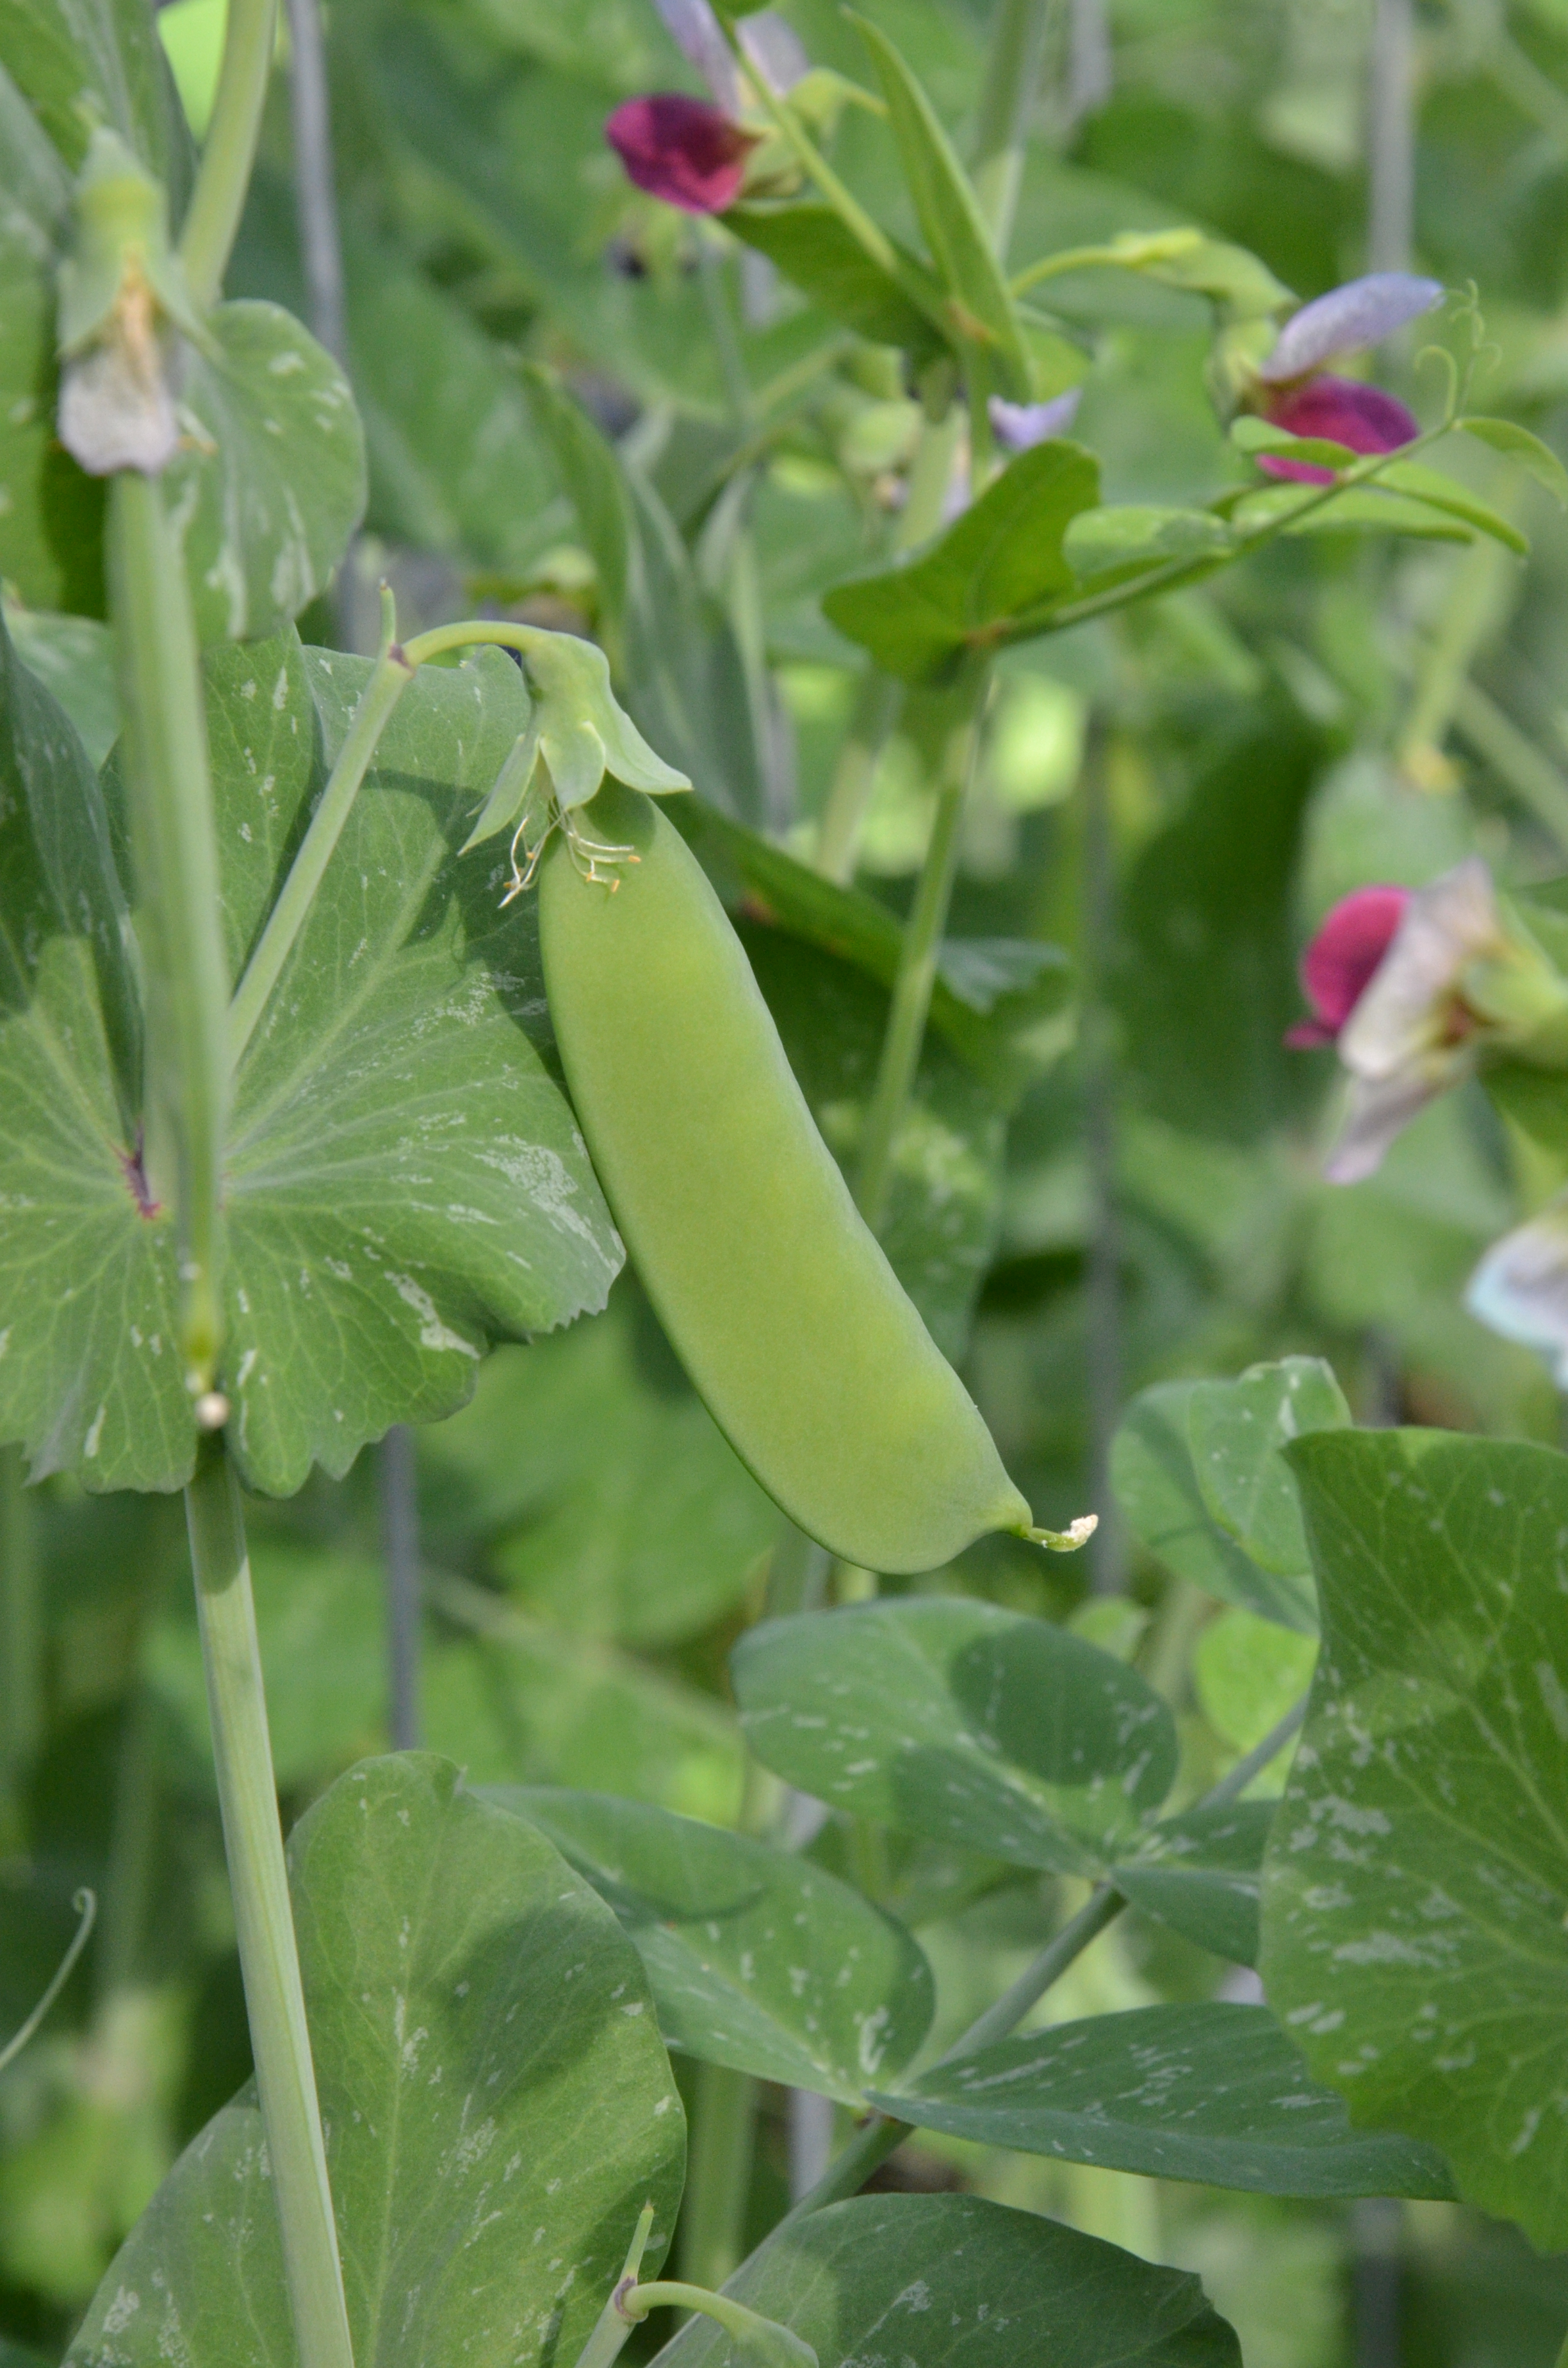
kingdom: Plantae
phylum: Tracheophyta
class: Magnoliopsida
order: Fabales
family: Fabaceae
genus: Lathyrus
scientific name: Lathyrus oleraceus
